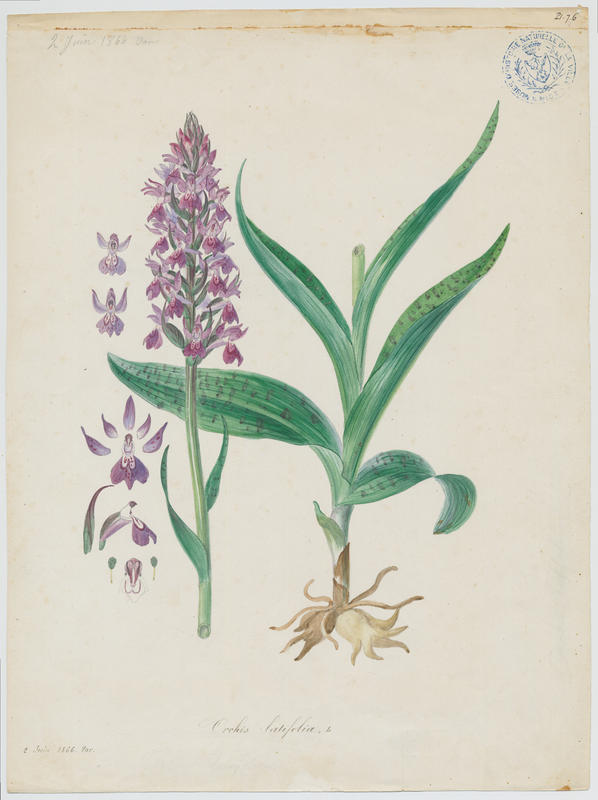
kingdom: Plantae
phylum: Tracheophyta
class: Liliopsida
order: Asparagales
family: Orchidaceae
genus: Dactylorhiza
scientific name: Dactylorhiza sambucina
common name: Elder-flowered orchid
